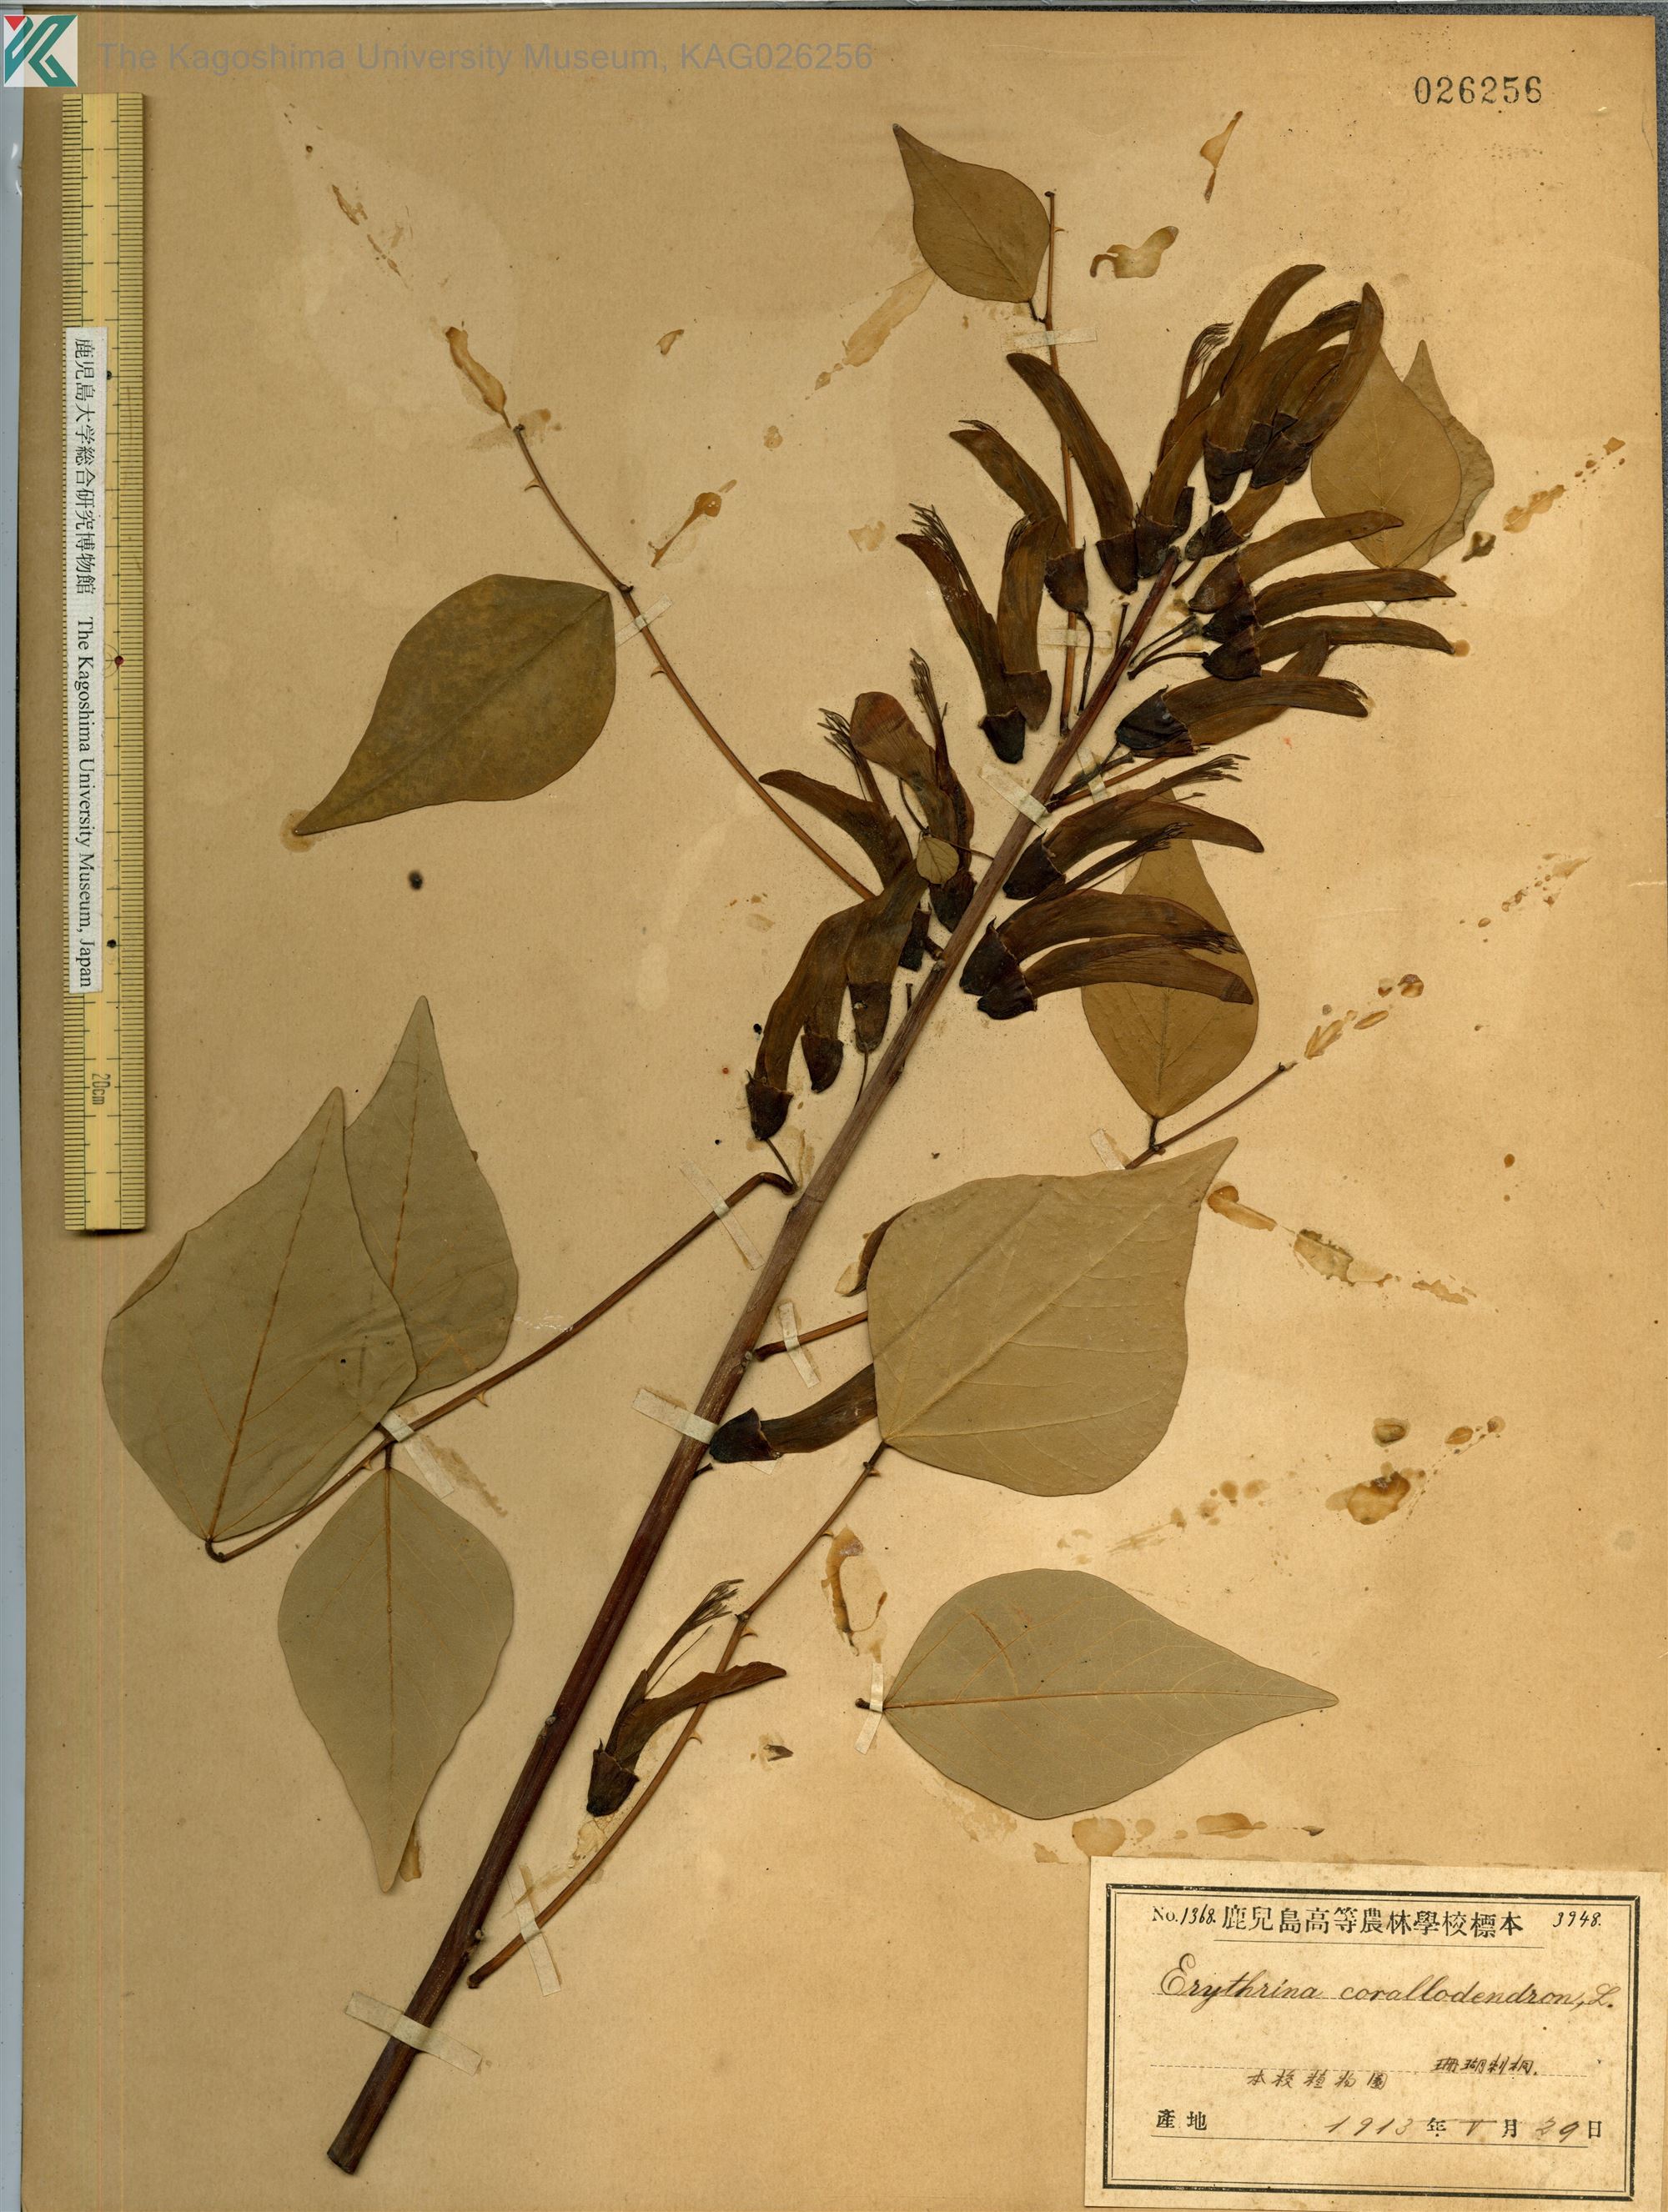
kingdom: Plantae
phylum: Tracheophyta
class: Magnoliopsida
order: Fabales
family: Fabaceae
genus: Erythrina
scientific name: Erythrina bidwillii
